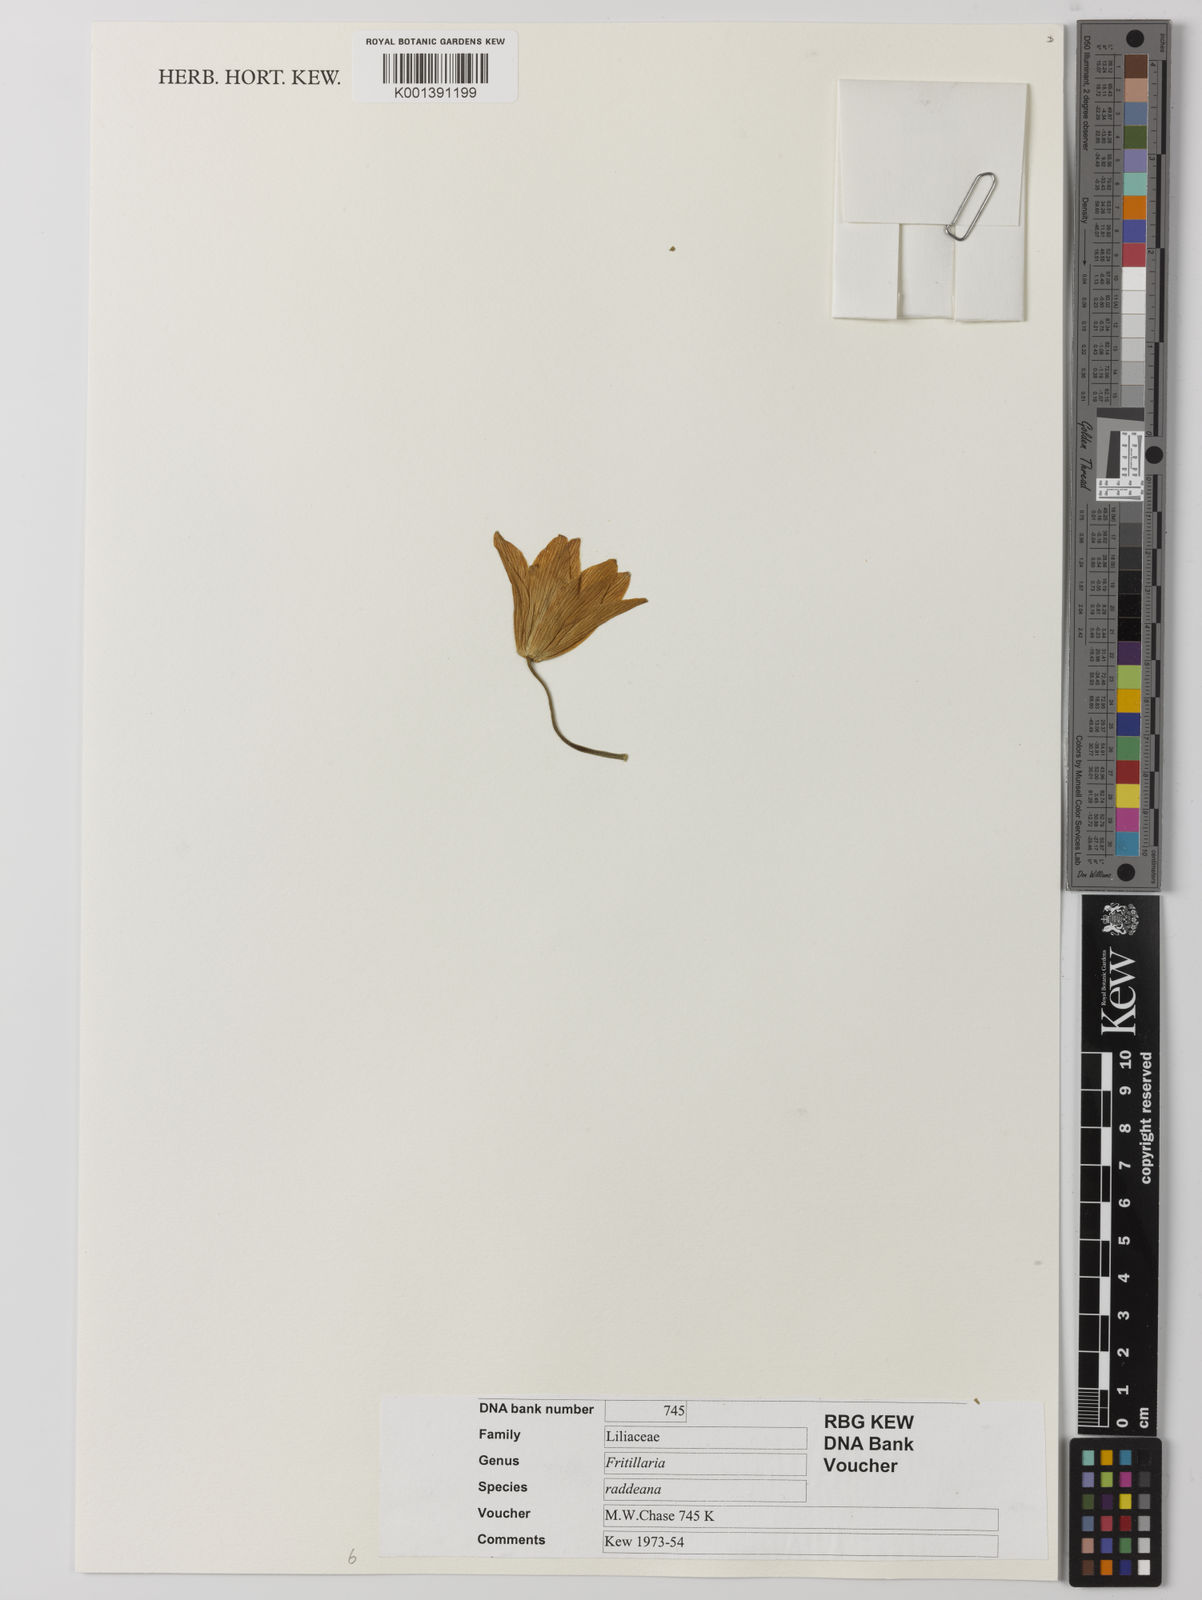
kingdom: Plantae
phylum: Tracheophyta
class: Liliopsida
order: Liliales
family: Liliaceae
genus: Fritillaria
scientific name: Fritillaria raddeana
